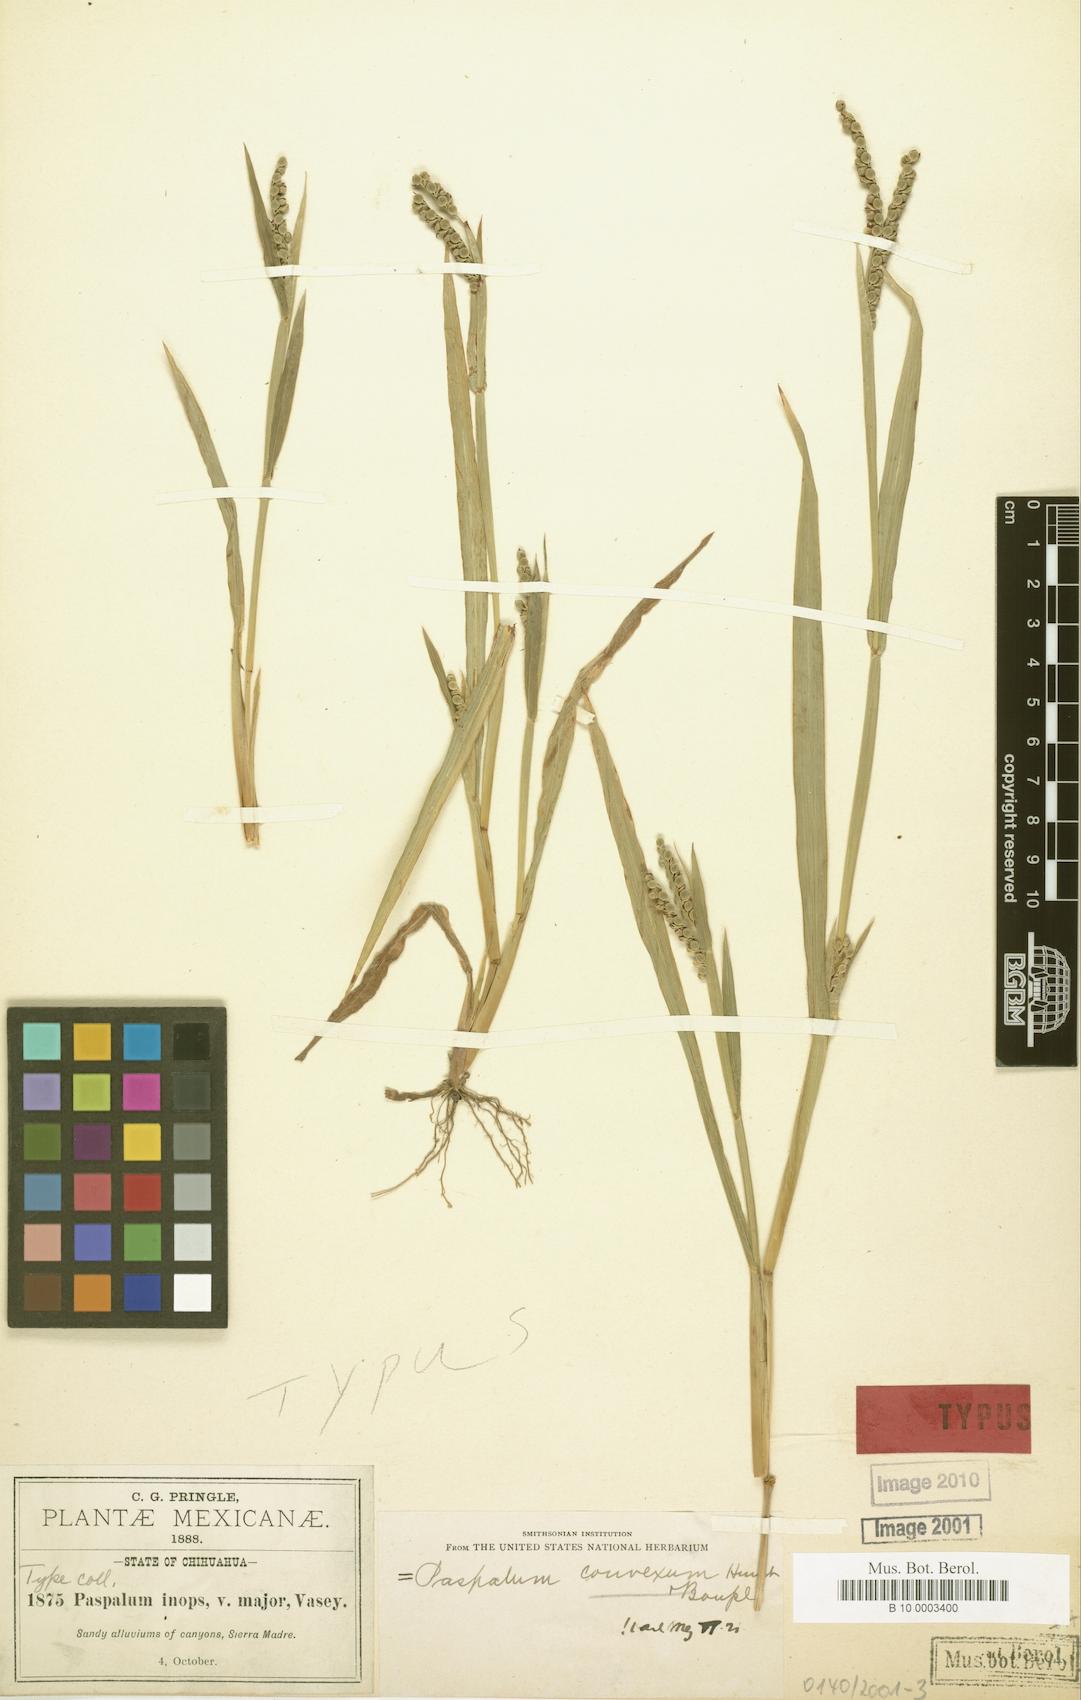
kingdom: Plantae
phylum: Tracheophyta
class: Liliopsida
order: Poales
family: Poaceae
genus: Paspalum
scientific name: Paspalum convexum
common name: Latin american crowngrass
